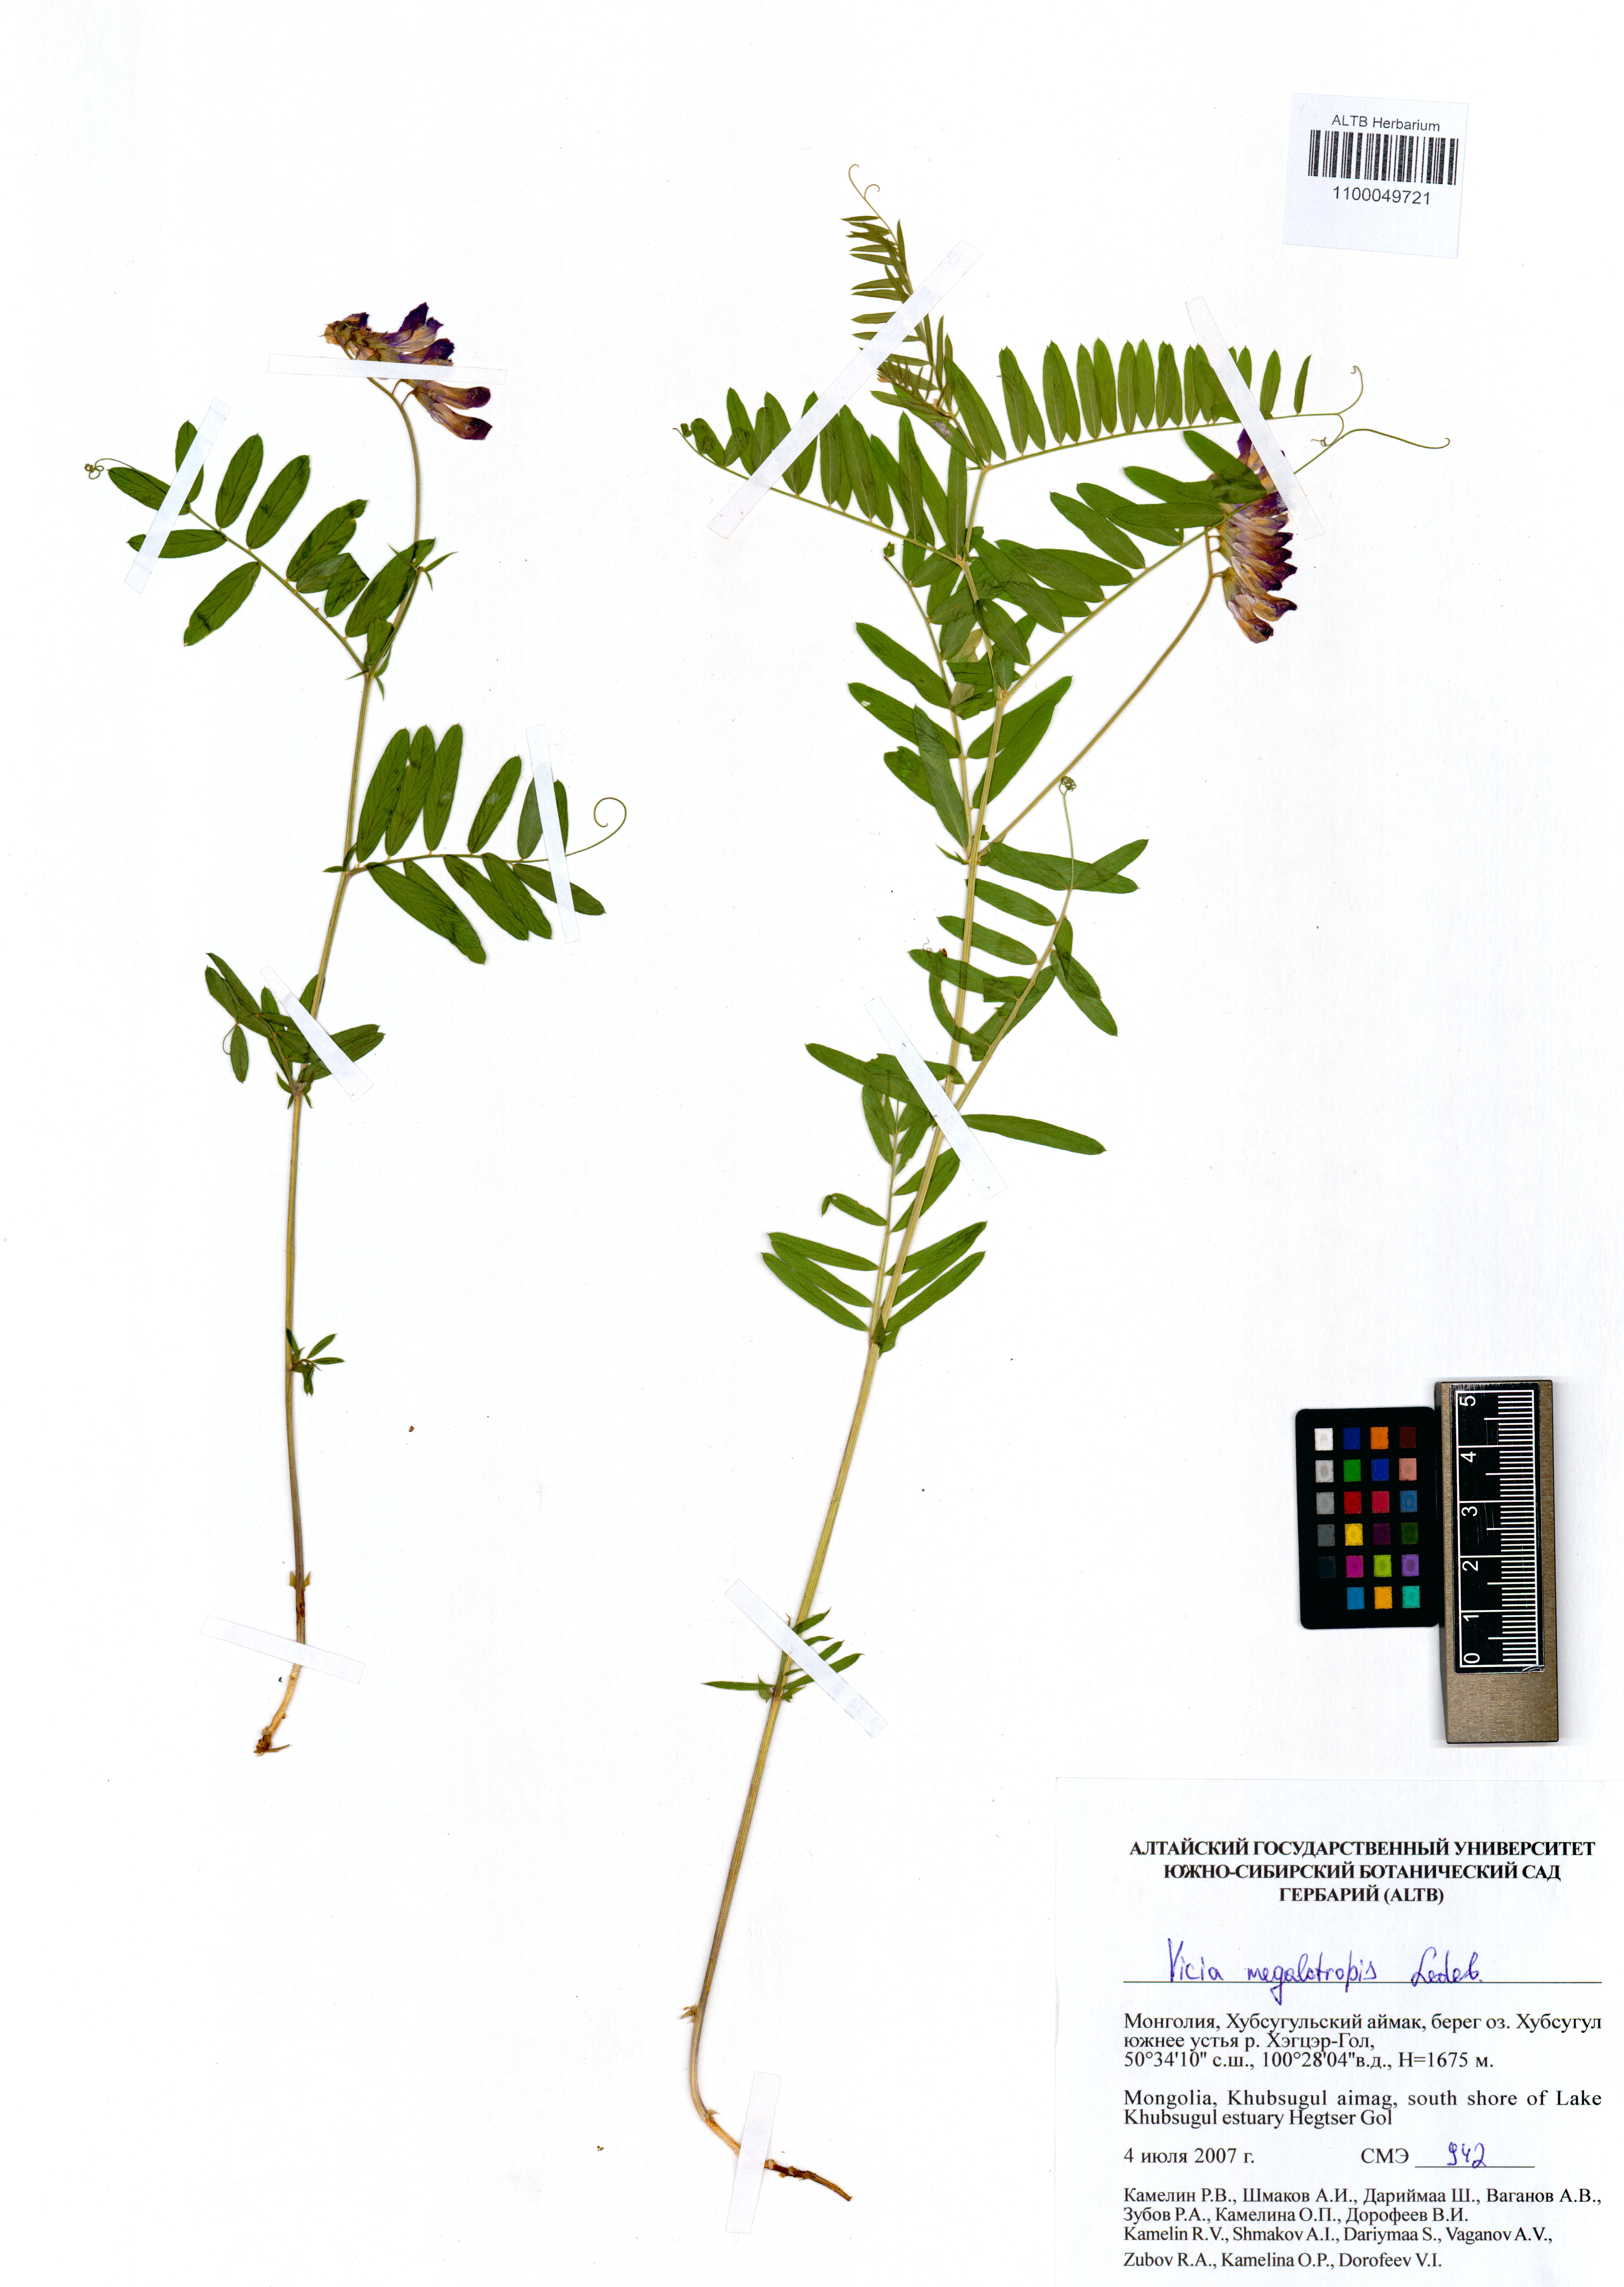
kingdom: Plantae
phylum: Tracheophyta
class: Magnoliopsida
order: Fabales
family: Fabaceae
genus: Vicia
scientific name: Vicia megalotropis
